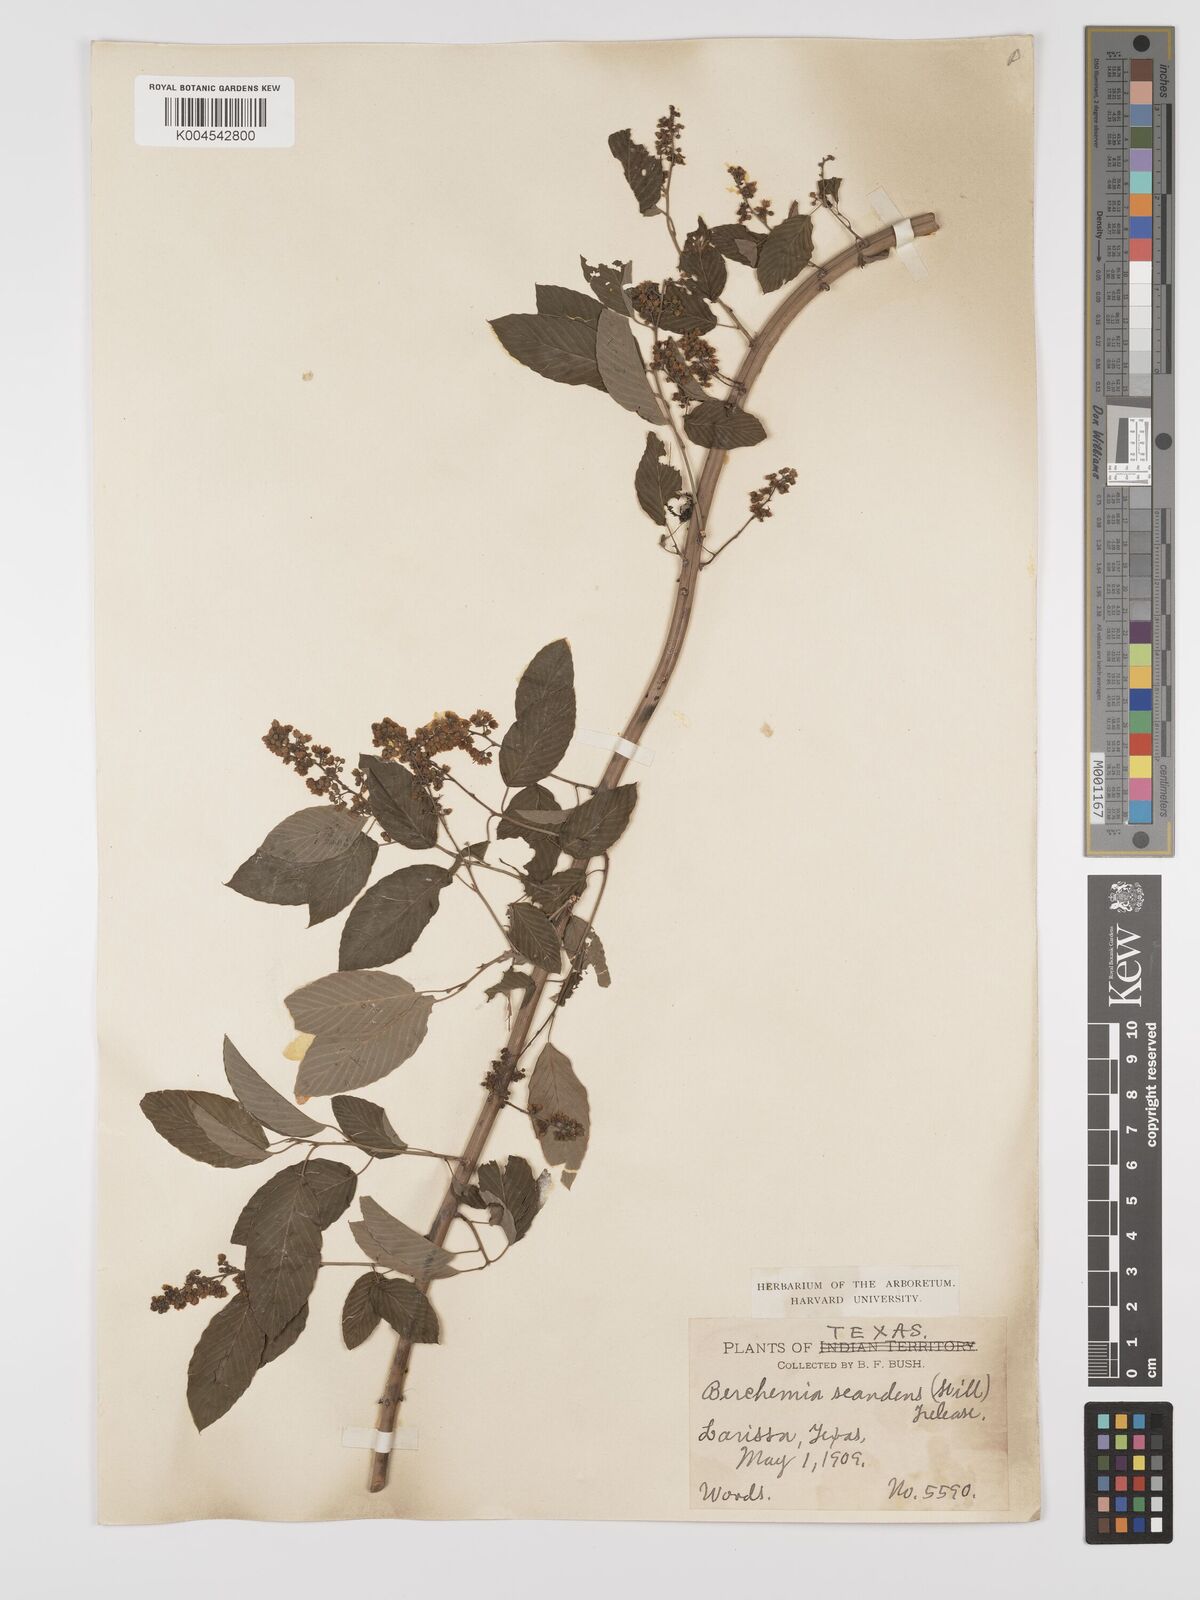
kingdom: Plantae
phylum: Tracheophyta
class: Magnoliopsida
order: Rosales
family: Rhamnaceae
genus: Berchemia
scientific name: Berchemia scandens
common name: Supplejack
